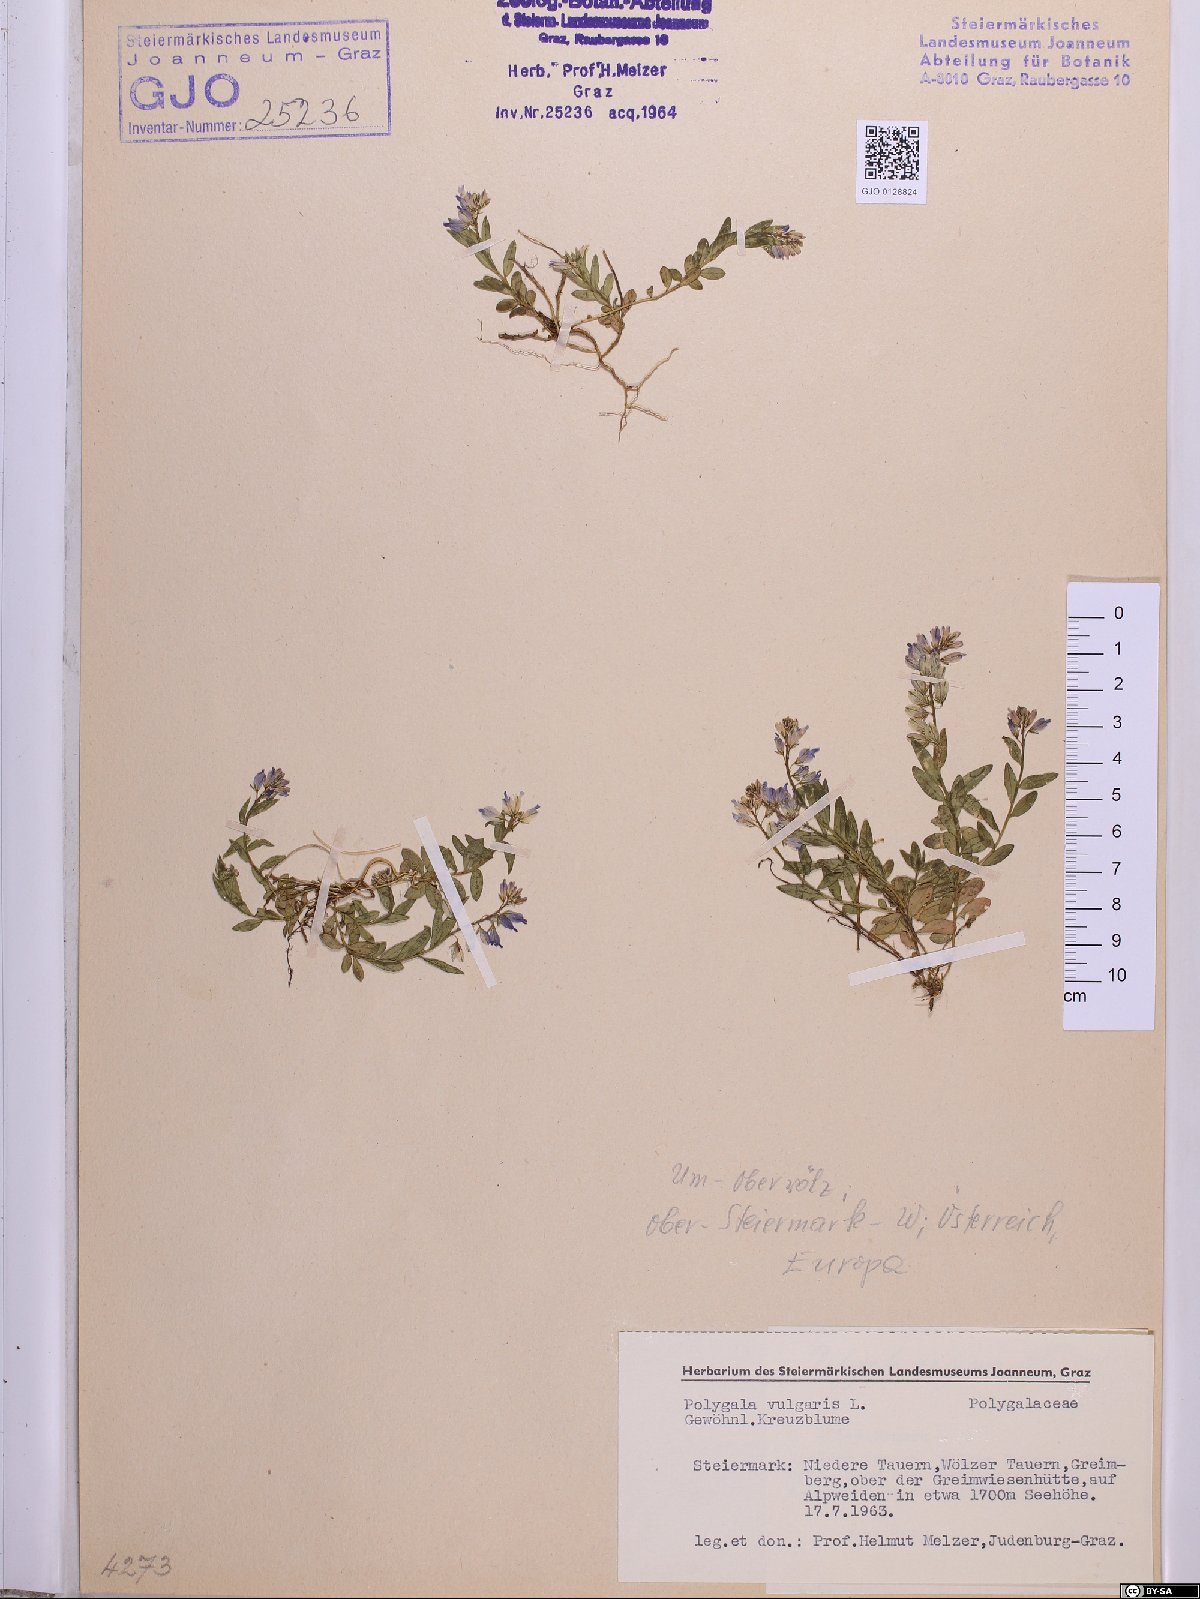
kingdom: Plantae
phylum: Tracheophyta
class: Magnoliopsida
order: Fabales
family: Polygalaceae
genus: Polygala
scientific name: Polygala vulgaris
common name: Common milkwort
